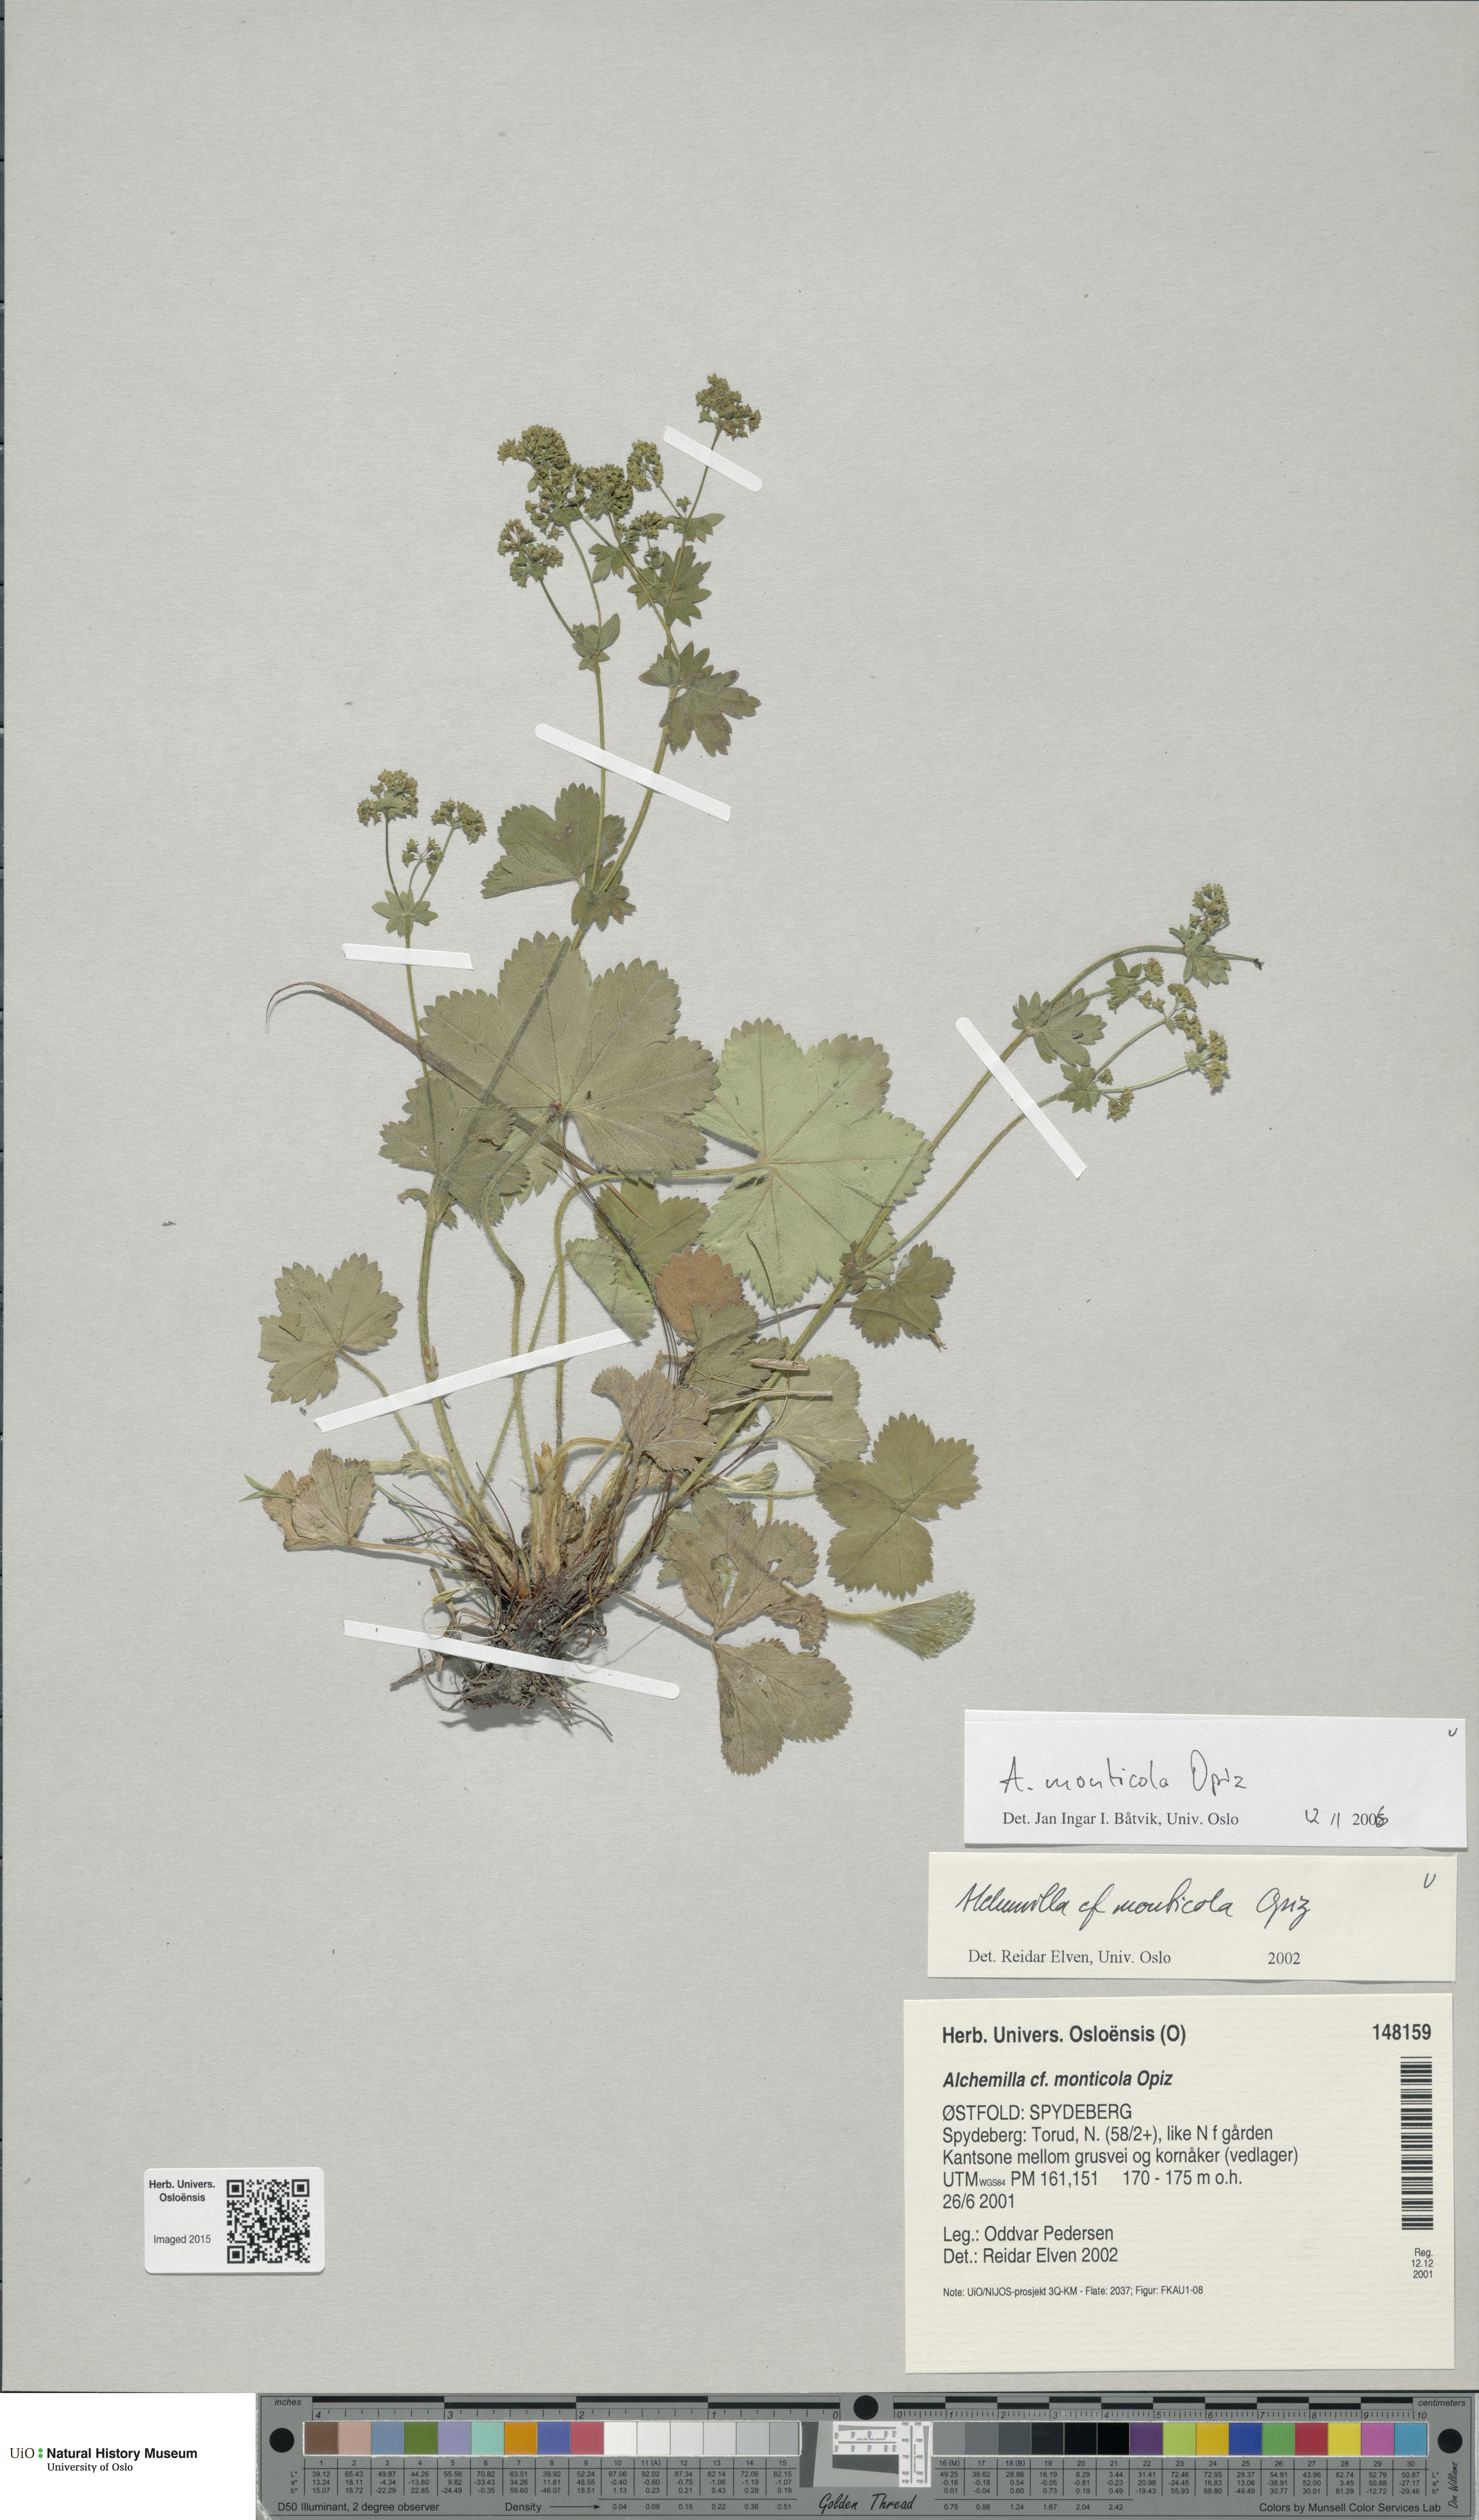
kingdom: Plantae
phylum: Tracheophyta
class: Magnoliopsida
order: Rosales
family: Rosaceae
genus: Alchemilla
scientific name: Alchemilla monticola
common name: Hairy lady's mantle
